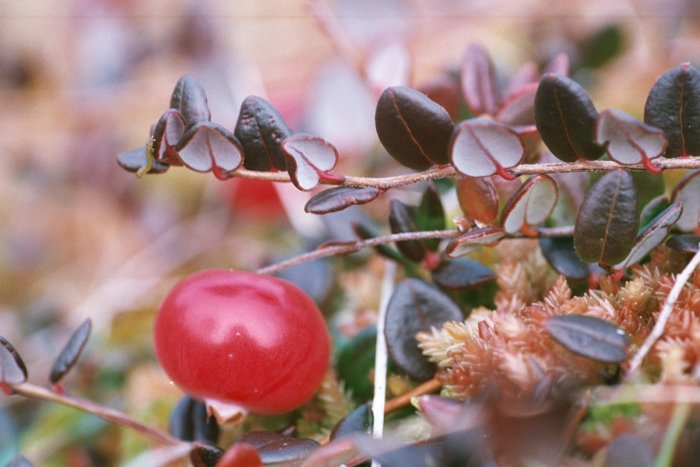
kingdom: Plantae
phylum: Tracheophyta
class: Magnoliopsida
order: Ericales
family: Ericaceae
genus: Vaccinium
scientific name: Vaccinium oxycoccos
